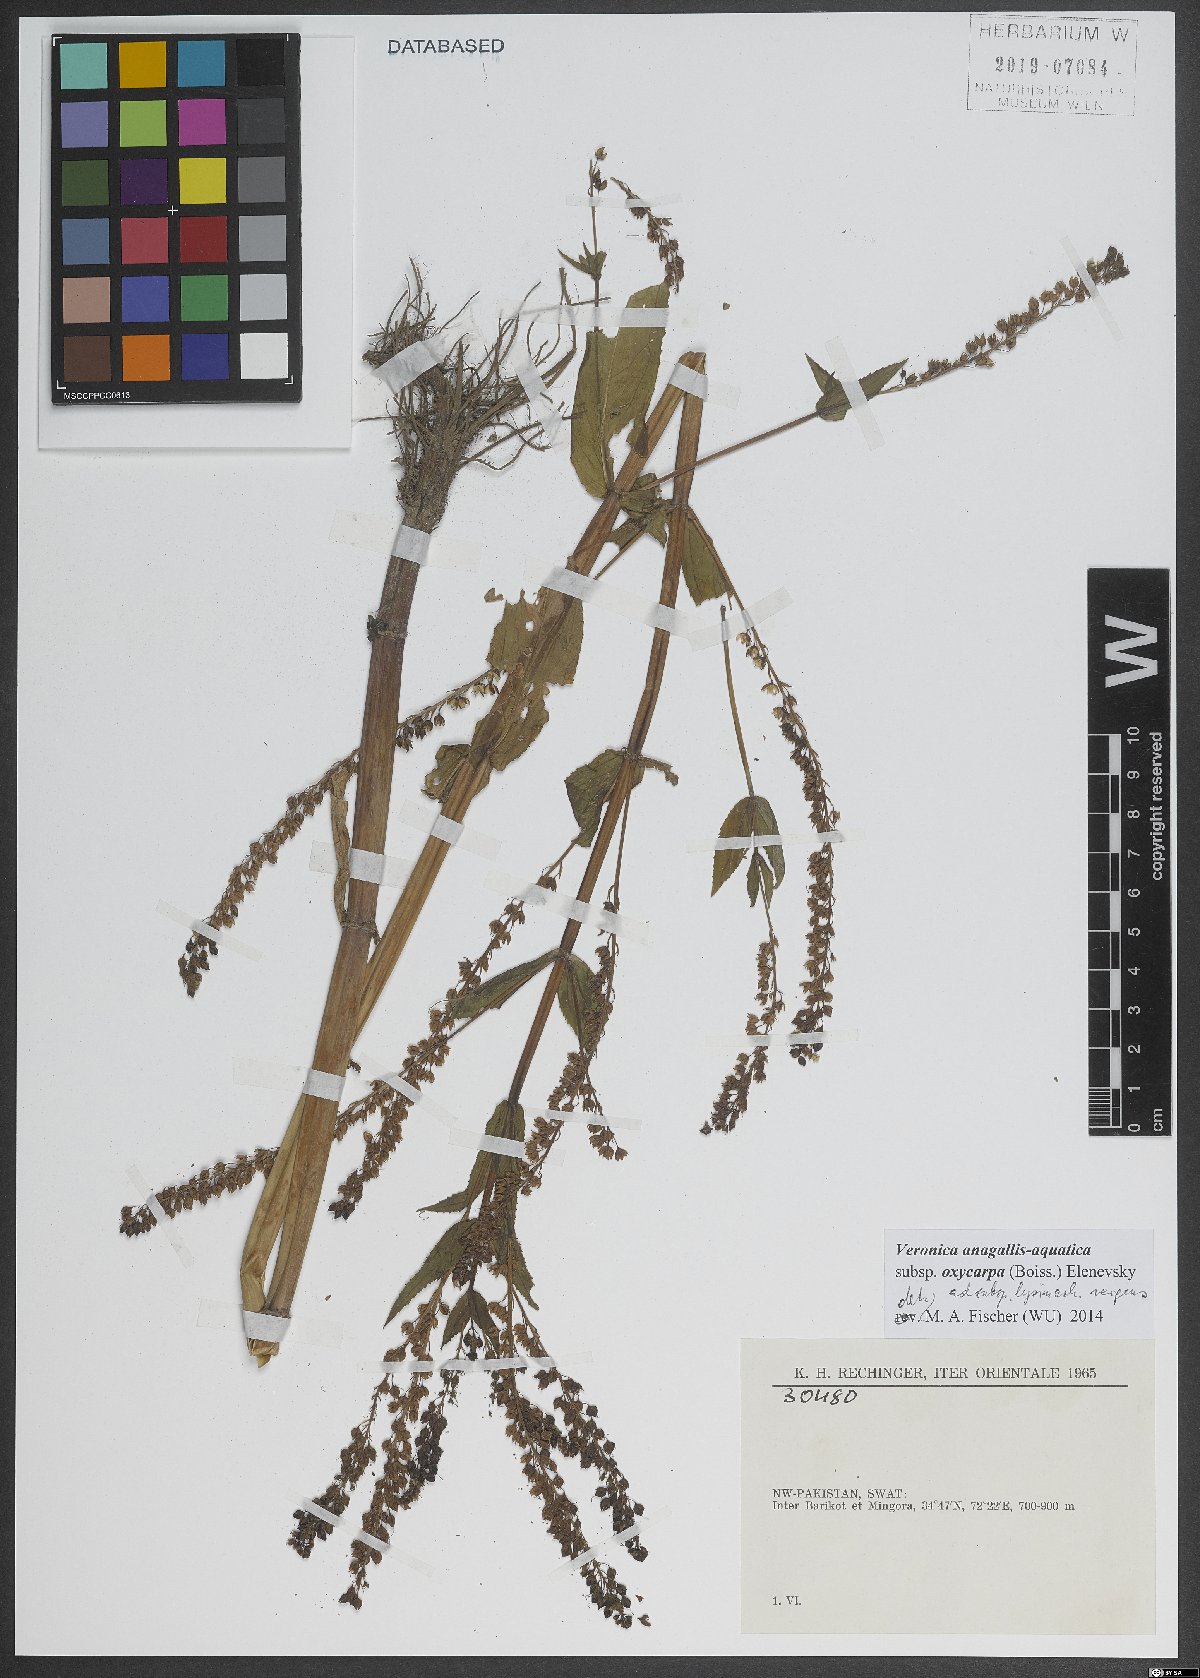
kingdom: Plantae
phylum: Tracheophyta
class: Magnoliopsida
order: Lamiales
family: Plantaginaceae
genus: Veronica
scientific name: Veronica anagallis-aquatica
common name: Water speedwell
